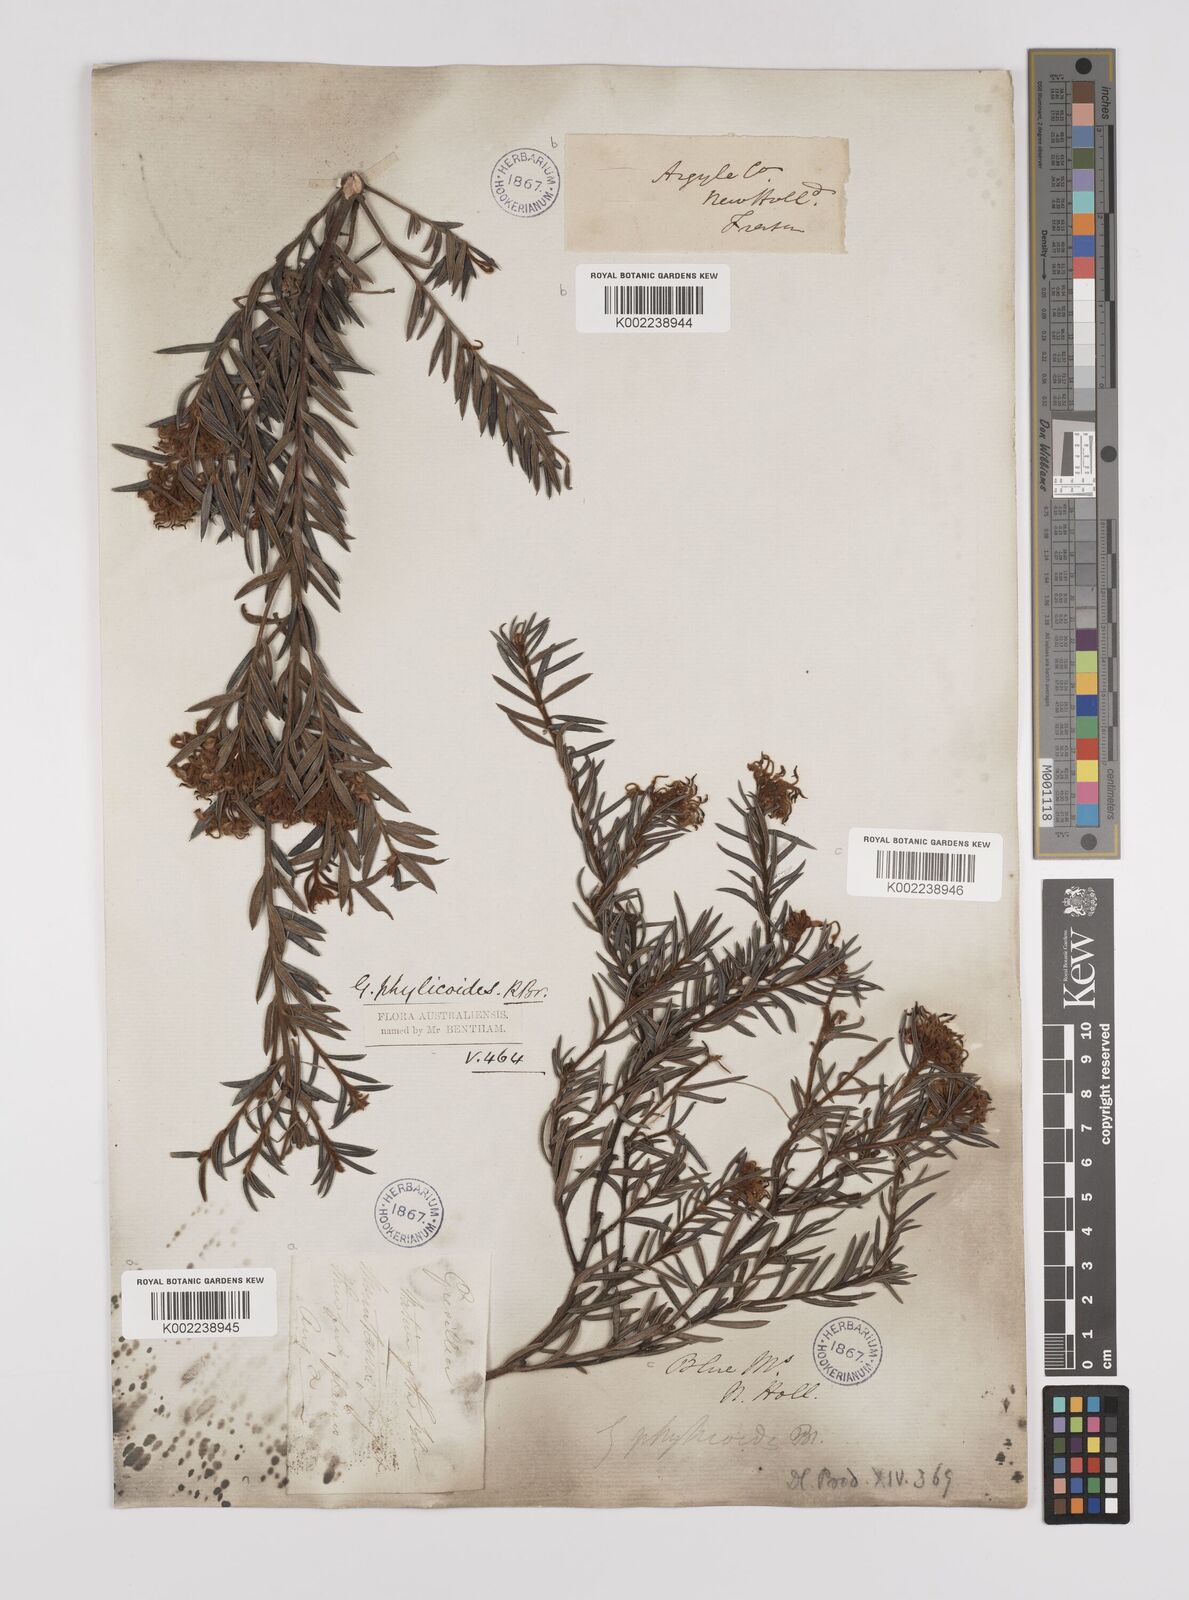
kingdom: Plantae
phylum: Tracheophyta
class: Magnoliopsida
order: Proteales
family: Proteaceae
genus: Grevillea
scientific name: Grevillea phylicoides
